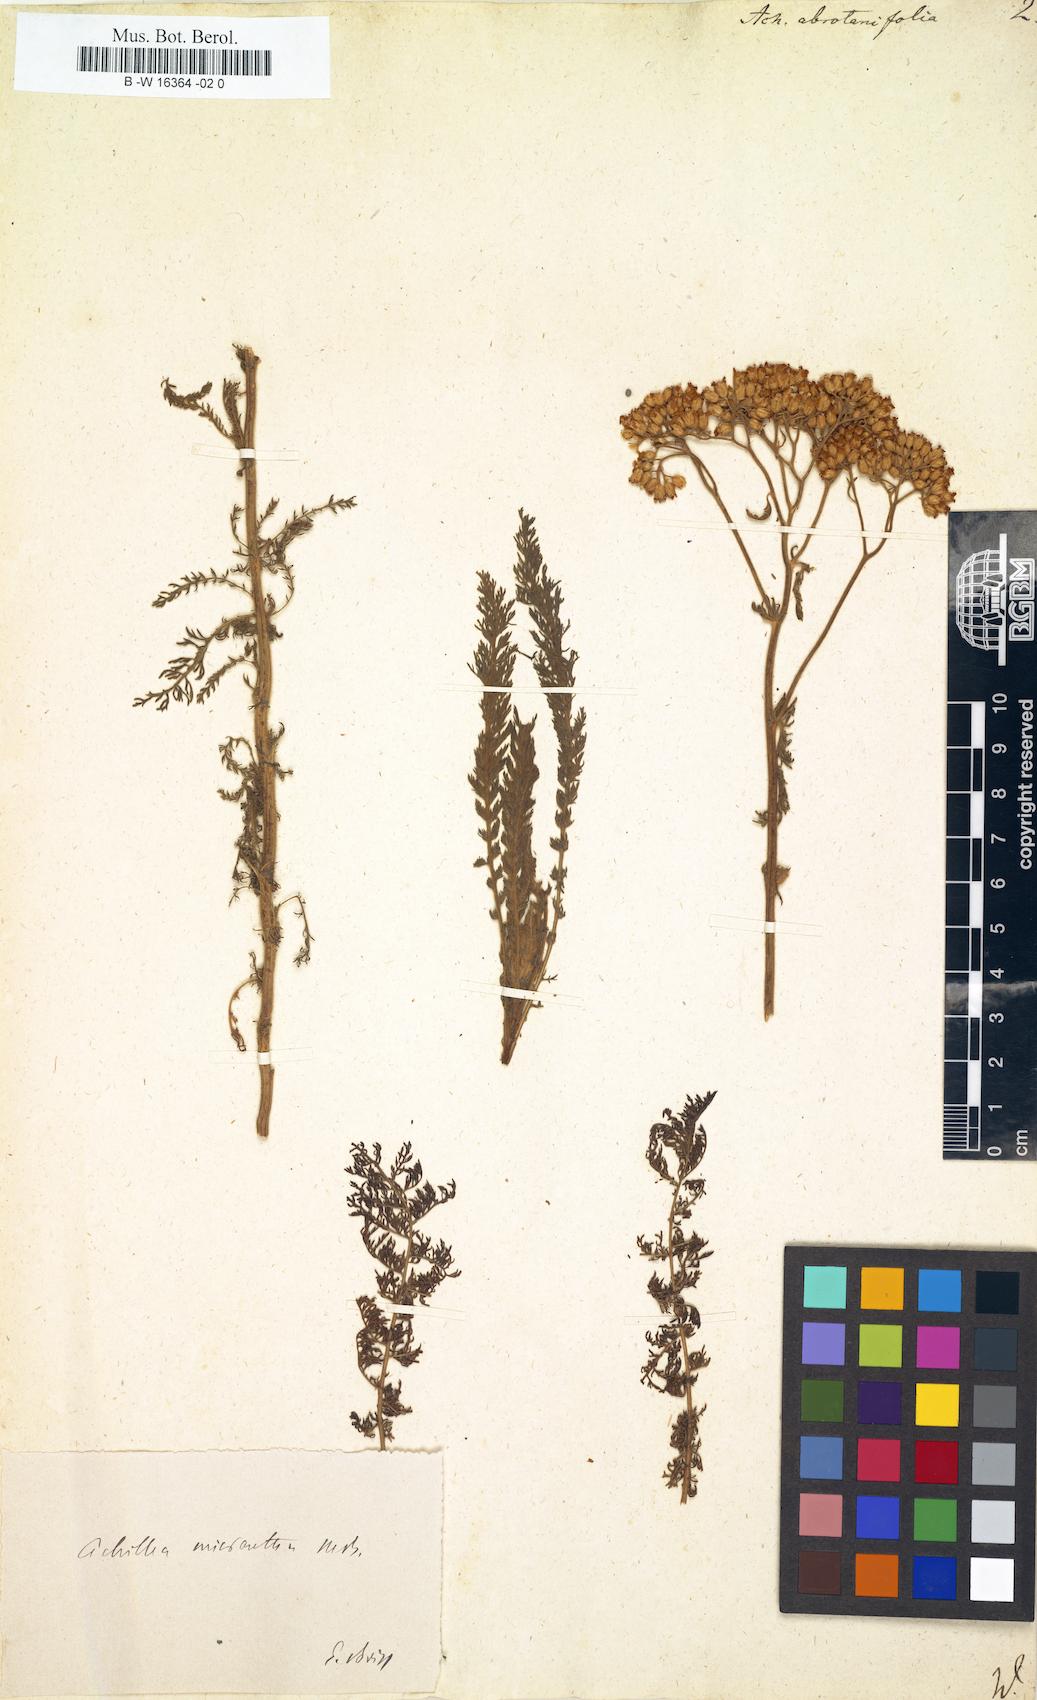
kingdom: Plantae
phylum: Tracheophyta
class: Magnoliopsida
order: Asterales
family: Asteraceae
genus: Tanacetum
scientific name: Tanacetum abrotanifolium
